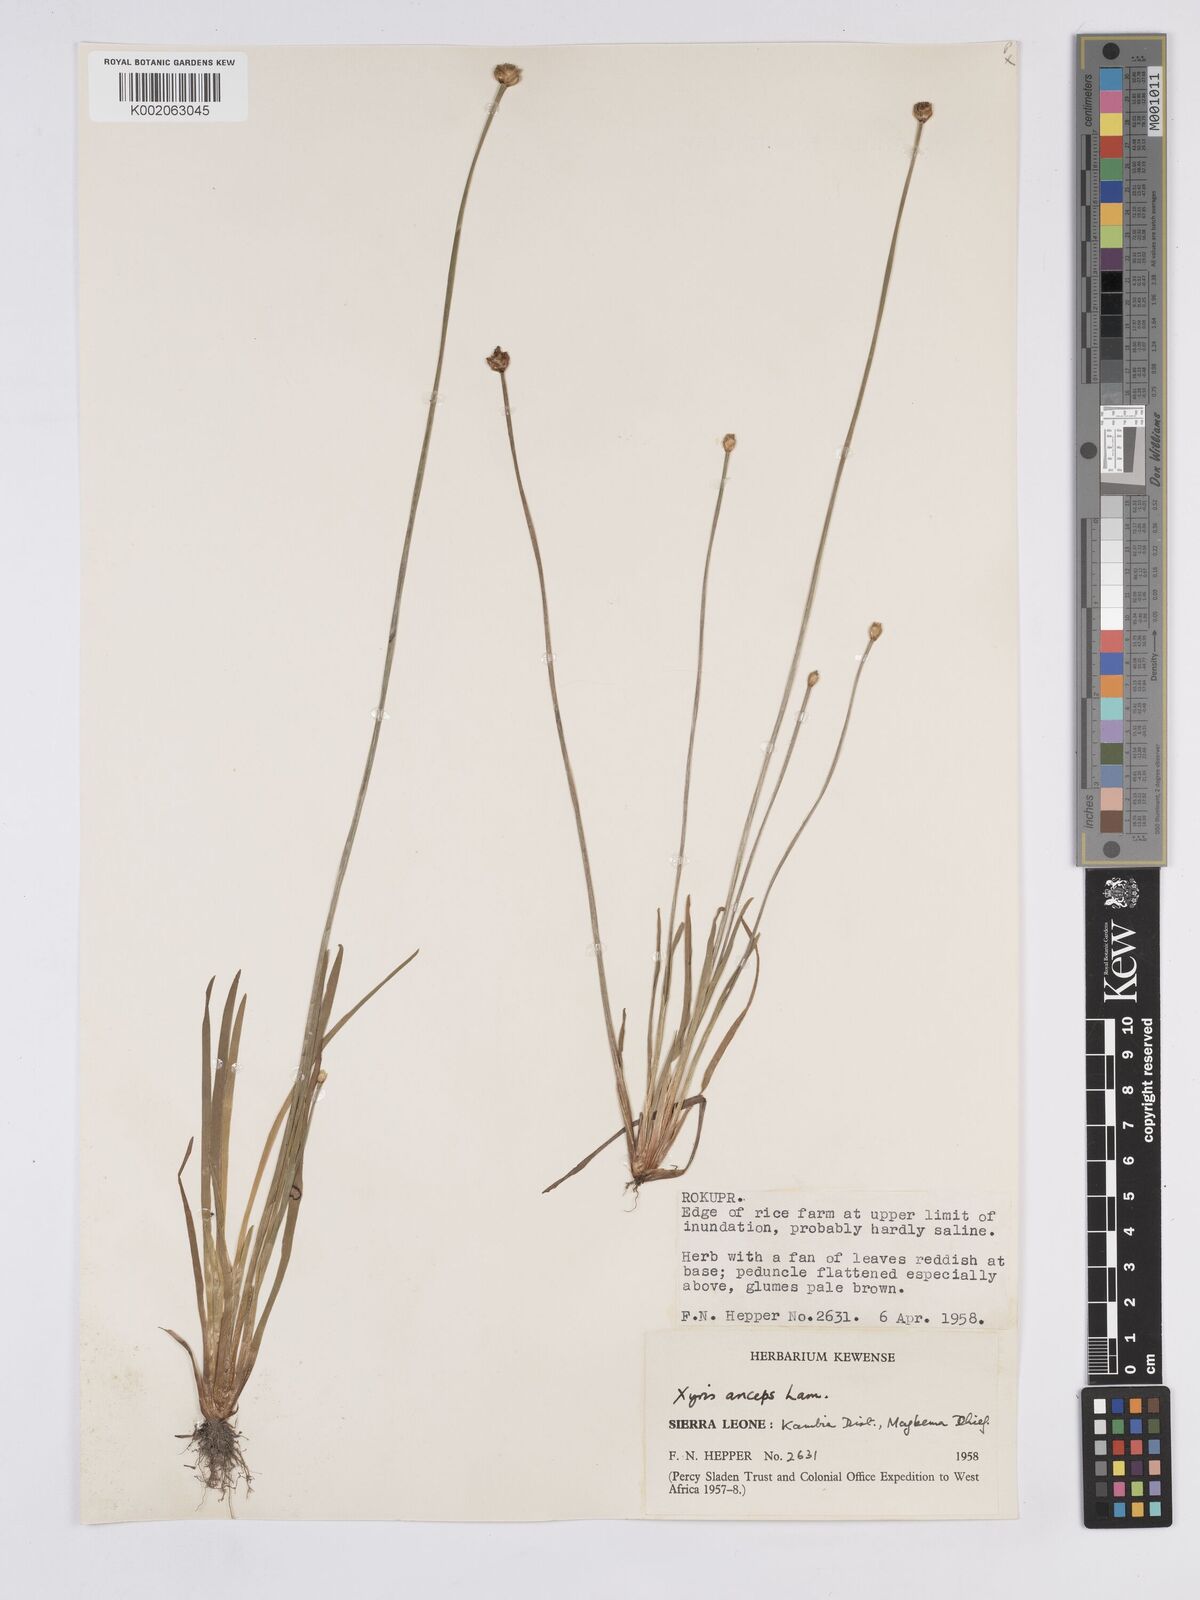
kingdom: Plantae
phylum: Tracheophyta
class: Liliopsida
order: Poales
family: Xyridaceae
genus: Xyris
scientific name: Xyris anceps
